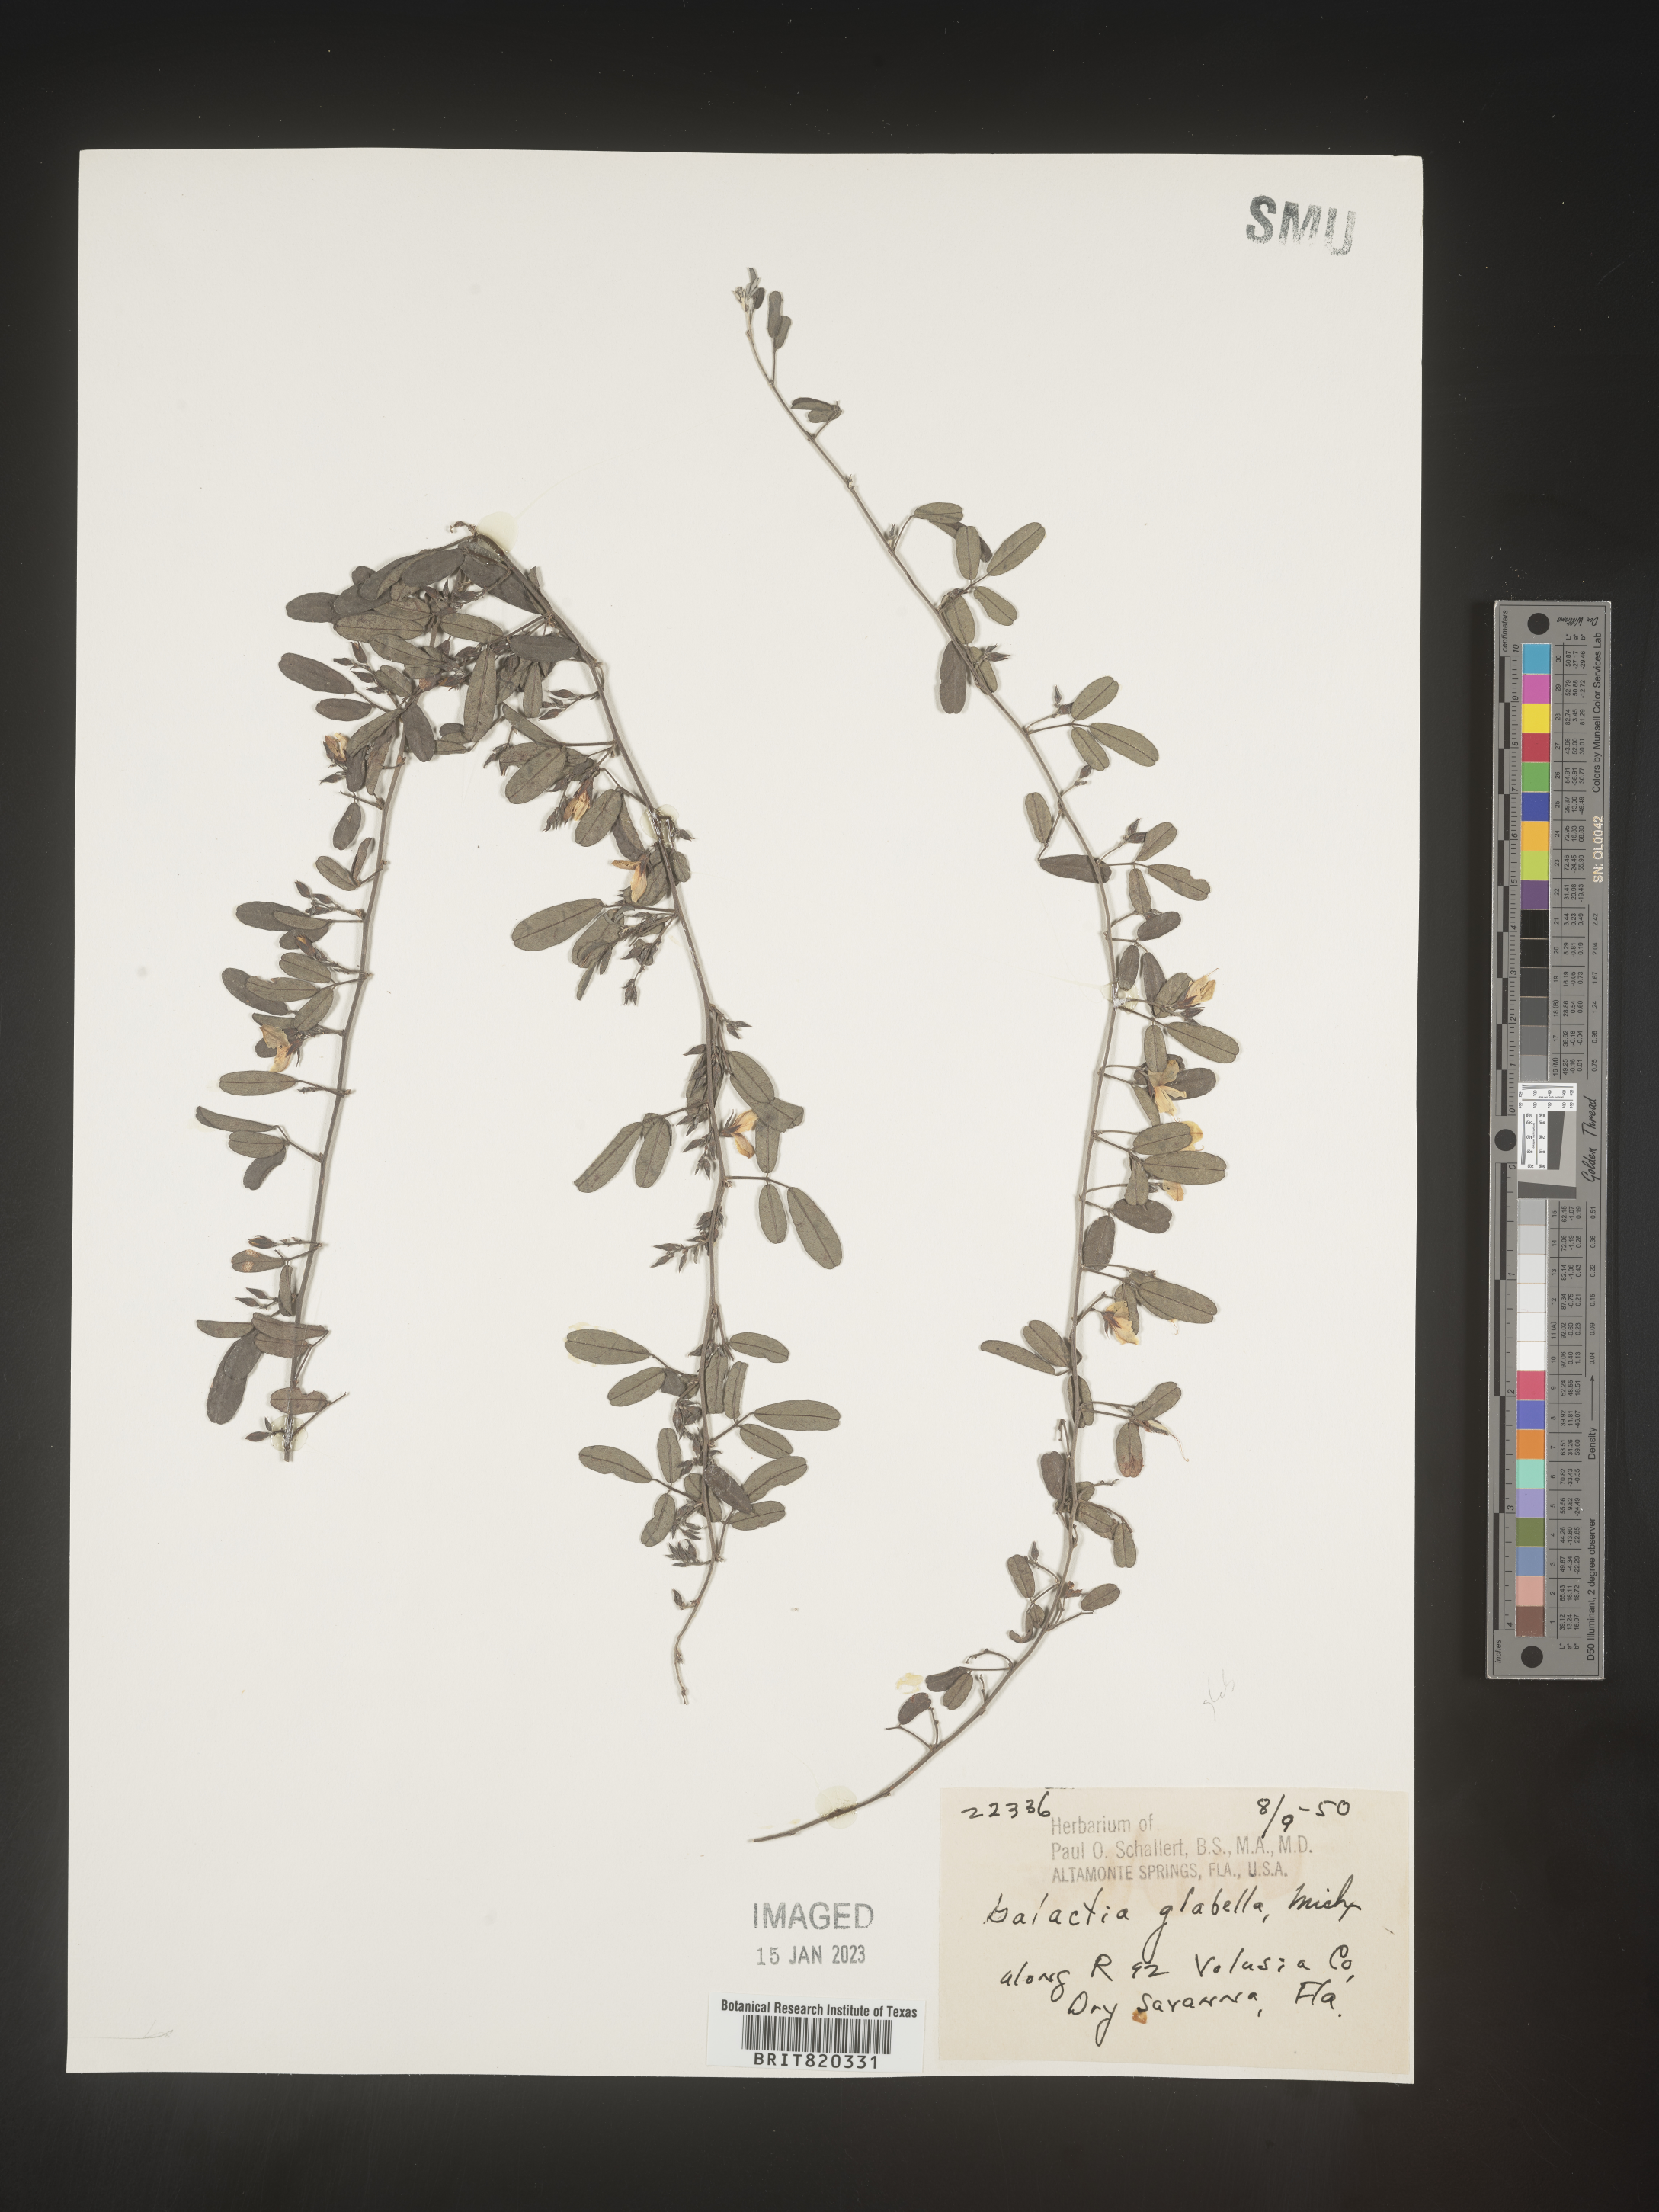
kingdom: Plantae
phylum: Tracheophyta
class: Magnoliopsida
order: Fabales
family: Fabaceae
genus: Galactia
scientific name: Galactia regularis
